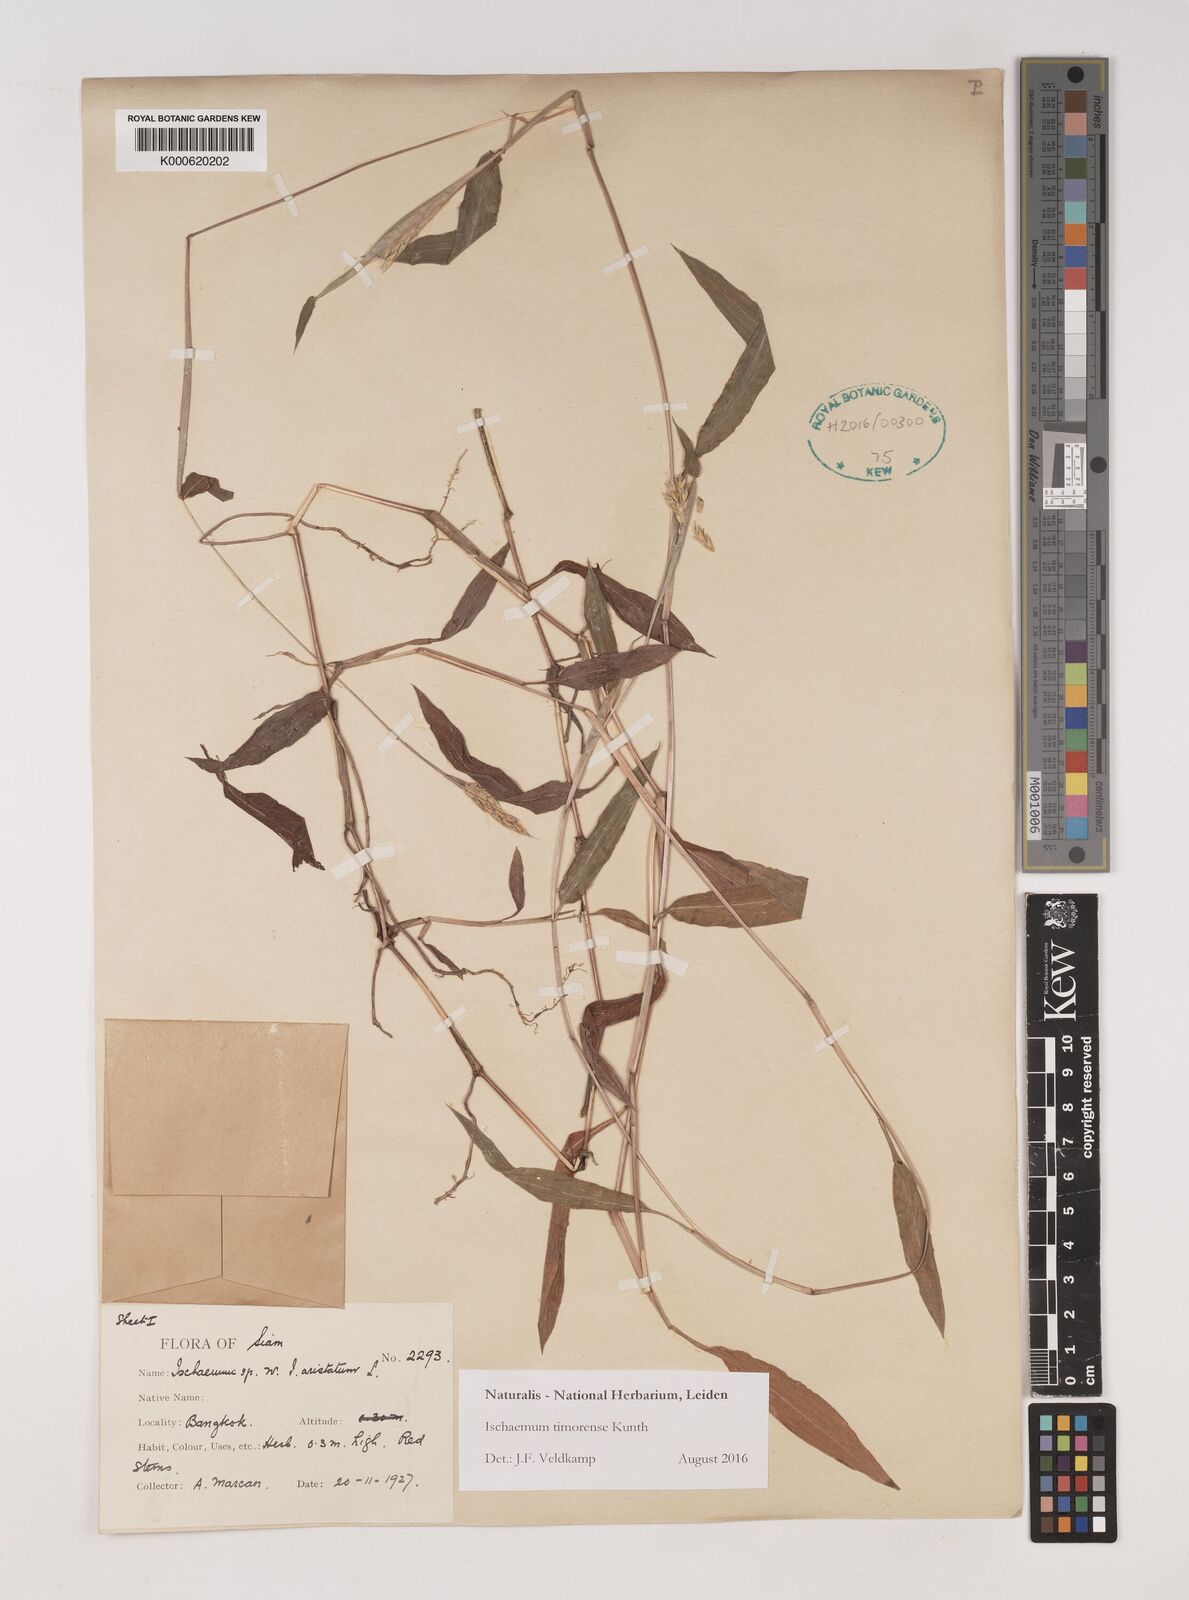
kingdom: Plantae
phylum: Tracheophyta
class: Liliopsida
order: Poales
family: Poaceae
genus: Ischaemum
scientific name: Ischaemum timorense
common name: Stalkleaf murainagrass
